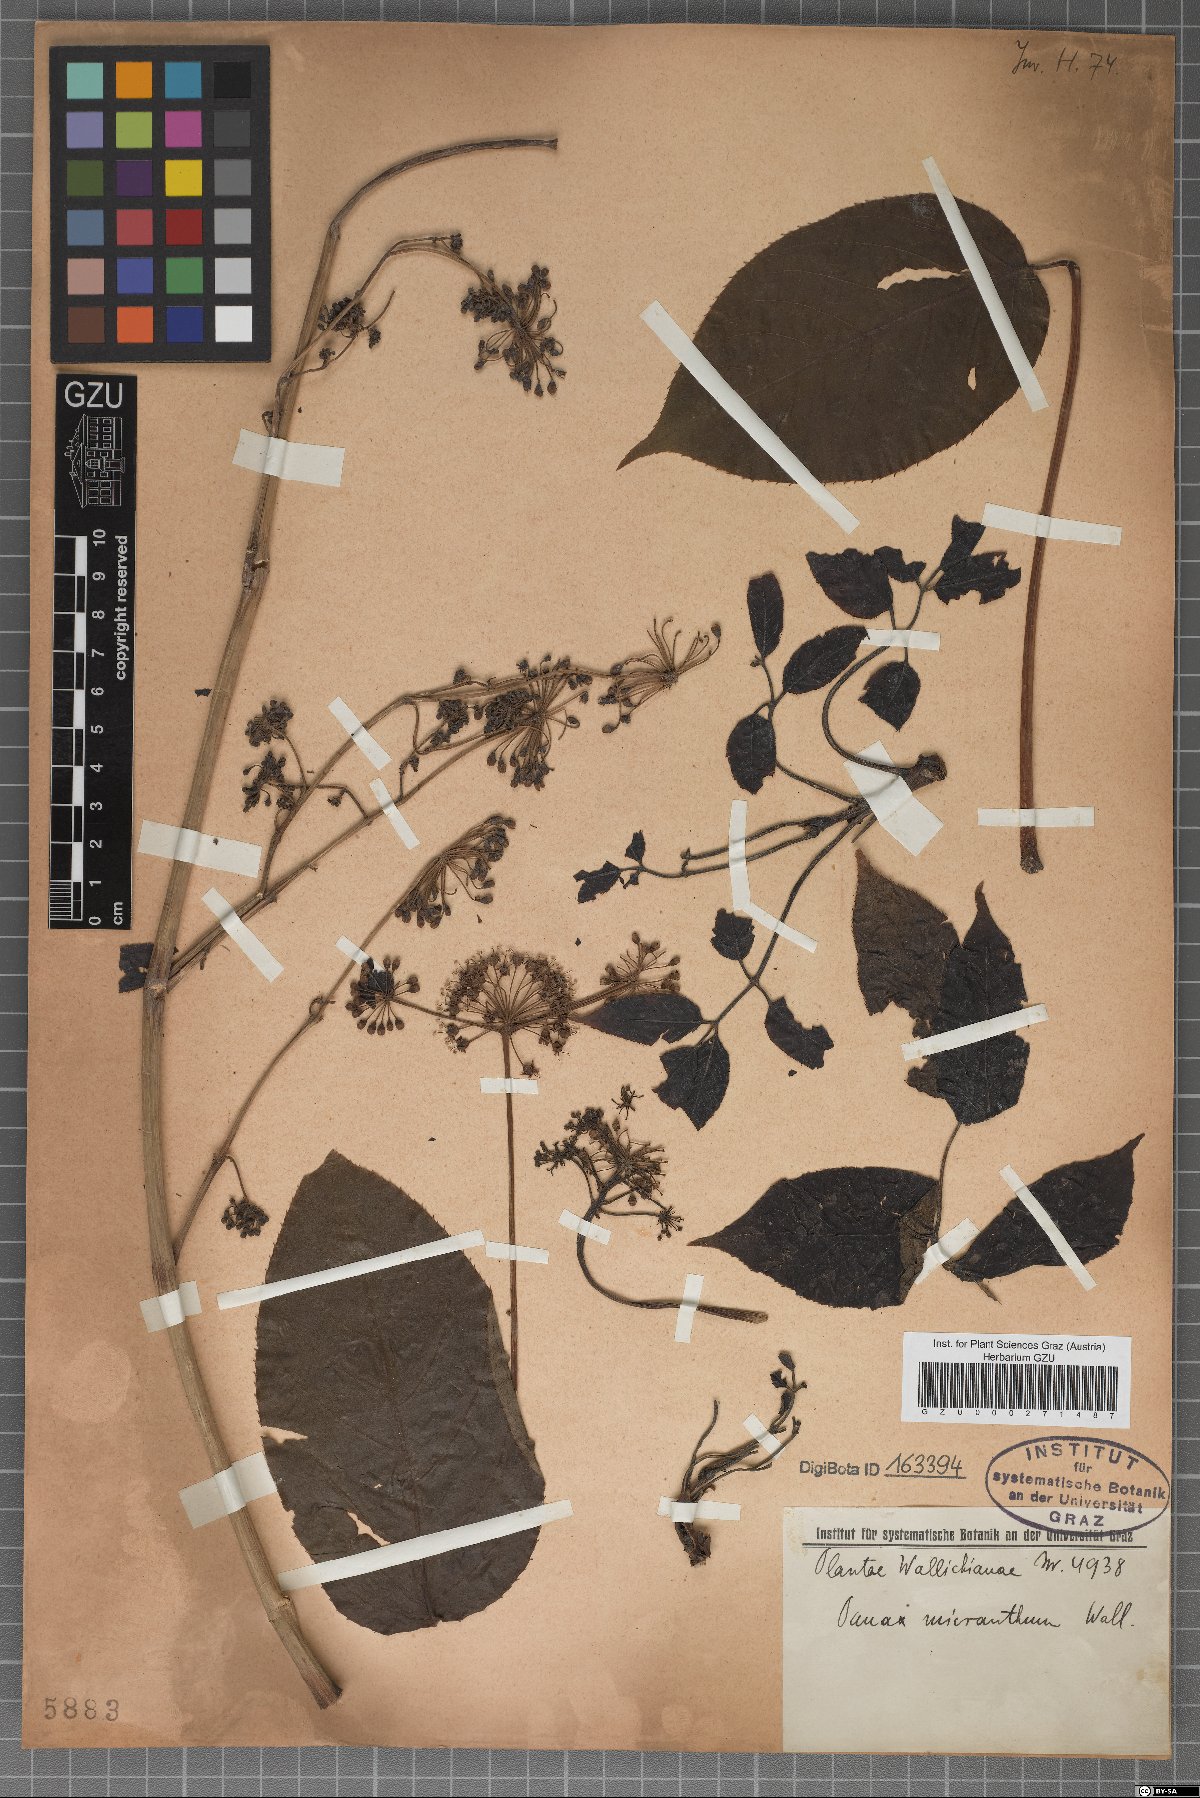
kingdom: Plantae
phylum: Tracheophyta
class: Magnoliopsida
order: Vitales
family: Vitaceae
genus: Vitis
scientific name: Vitis micrantha
